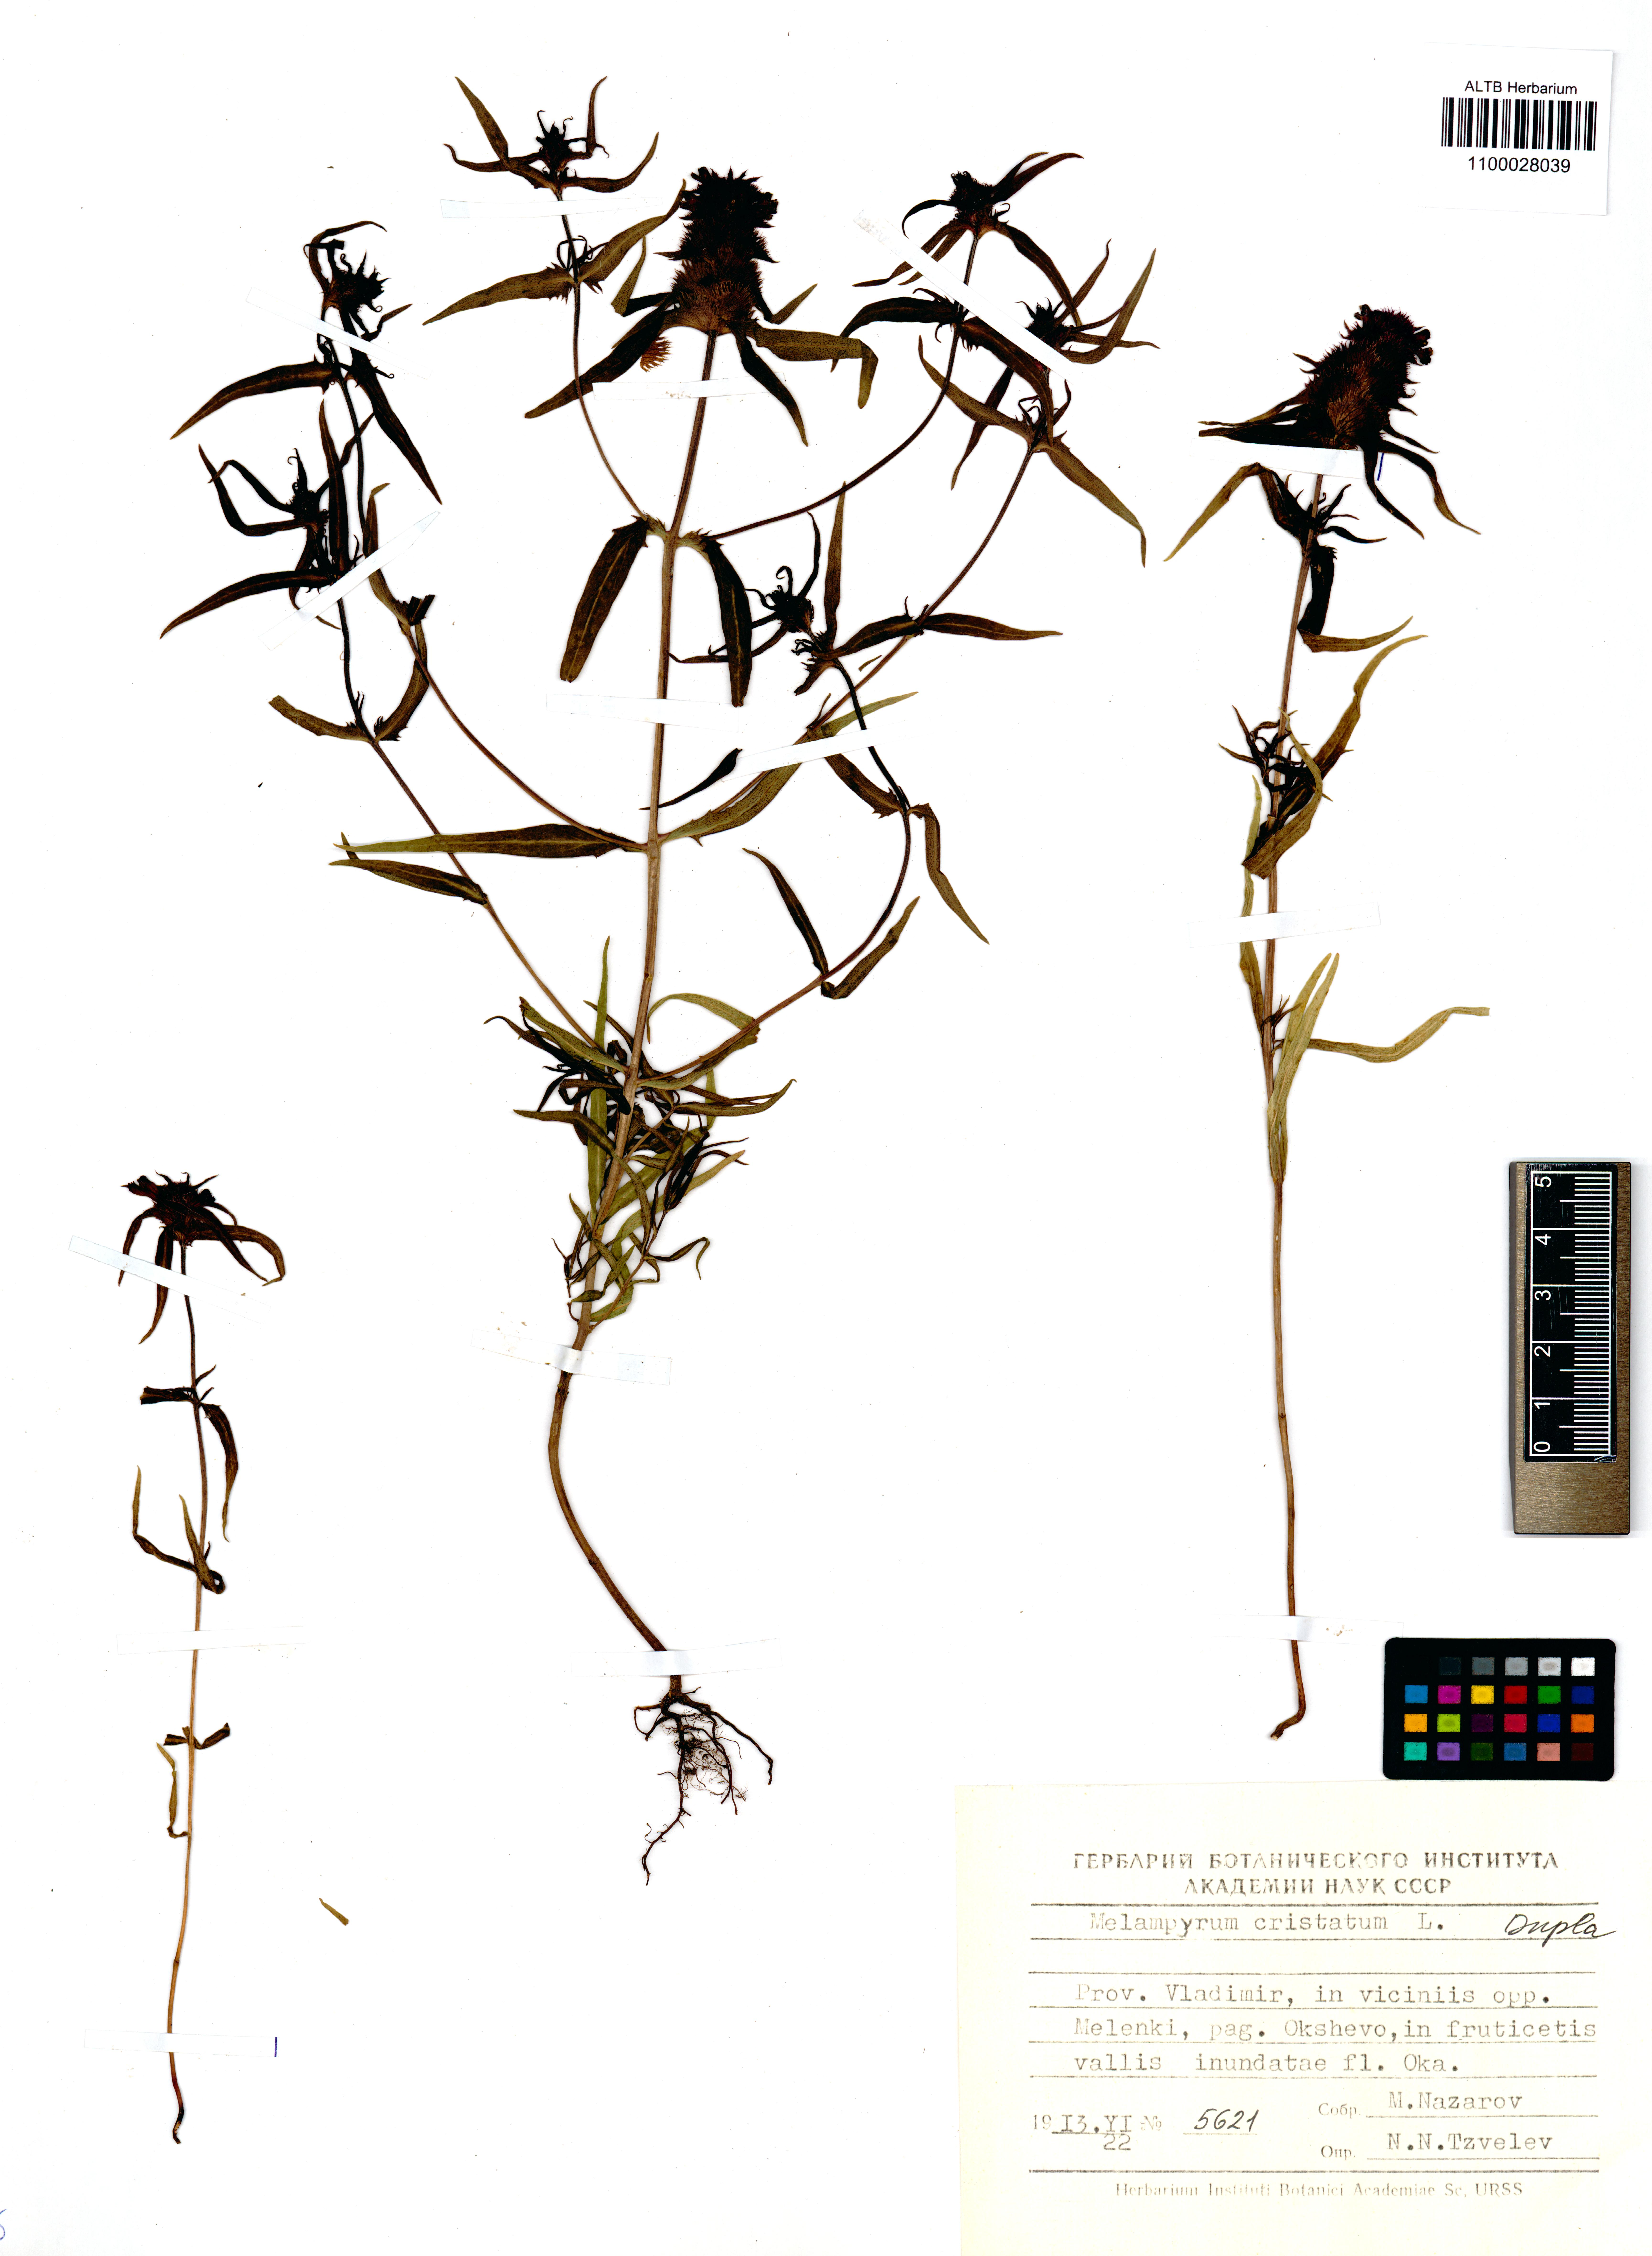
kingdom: Plantae
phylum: Tracheophyta
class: Magnoliopsida
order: Lamiales
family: Orobanchaceae
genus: Melampyrum
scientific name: Melampyrum cristatum
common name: Crested cow-wheat
